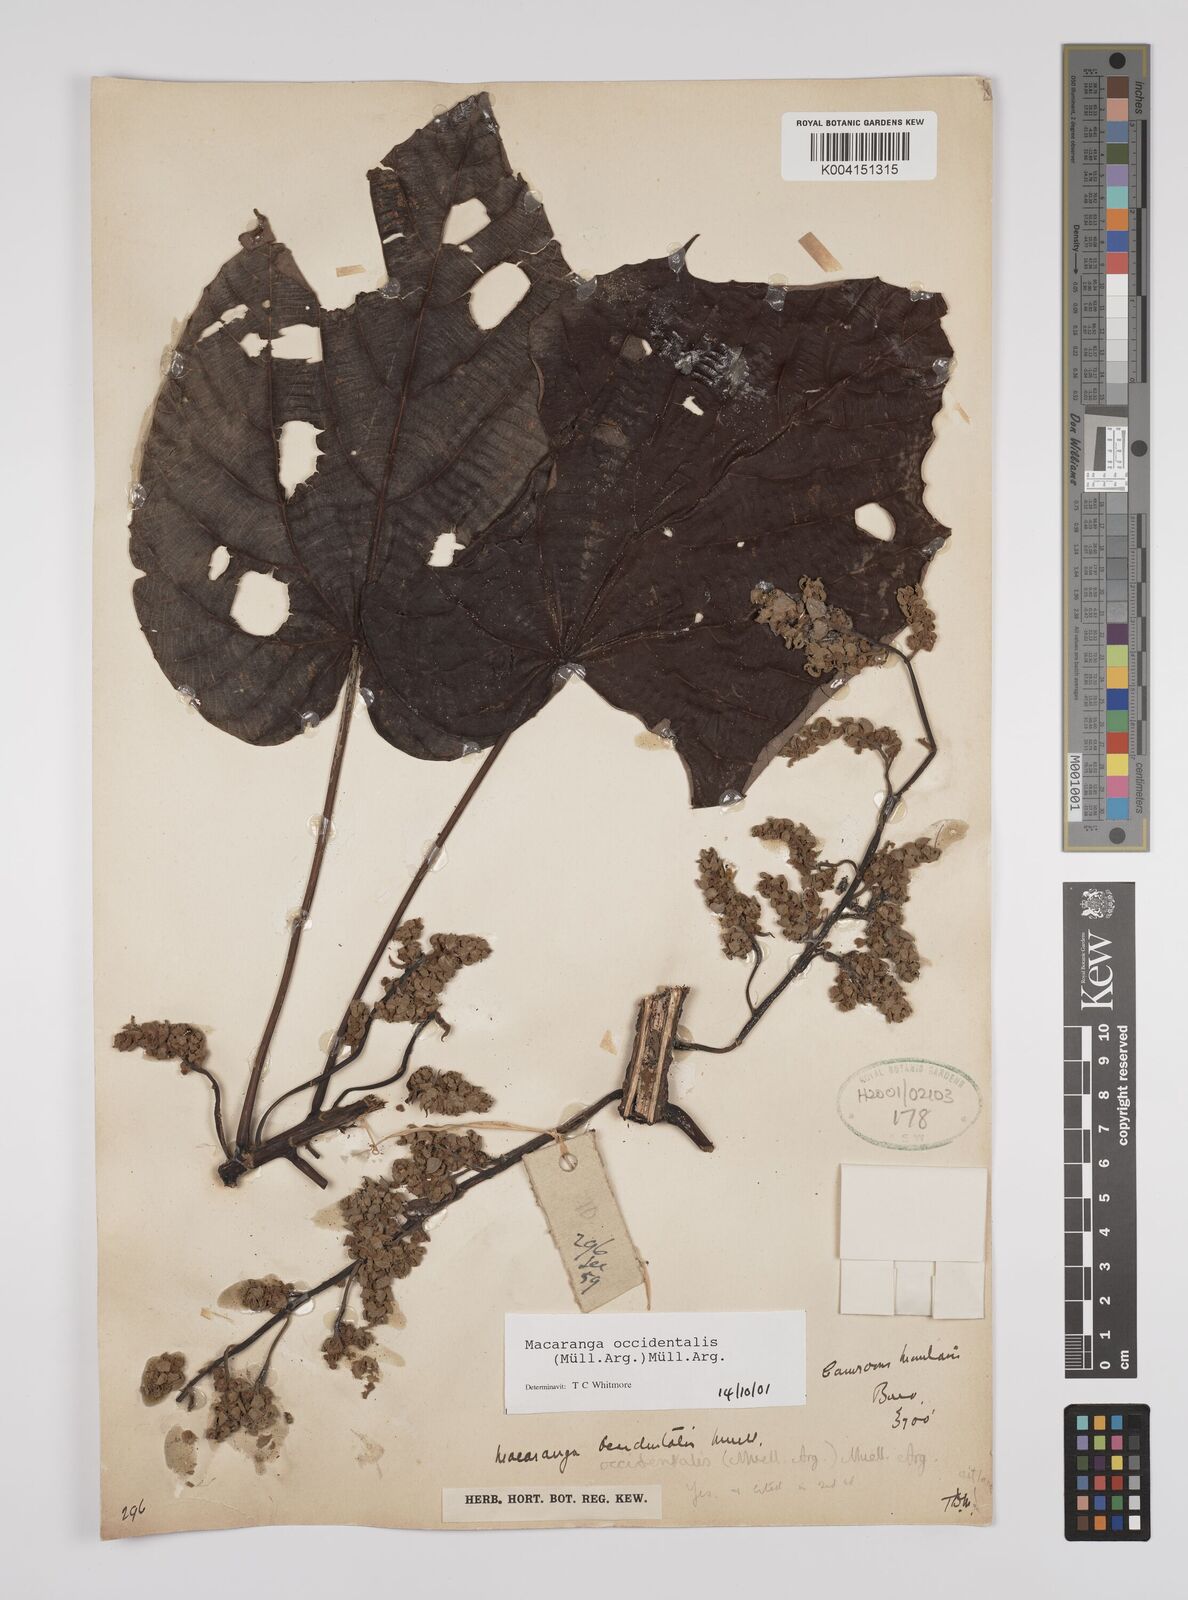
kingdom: Plantae
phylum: Tracheophyta
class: Magnoliopsida
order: Malpighiales
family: Euphorbiaceae
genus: Macaranga
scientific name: Macaranga occidentalis
